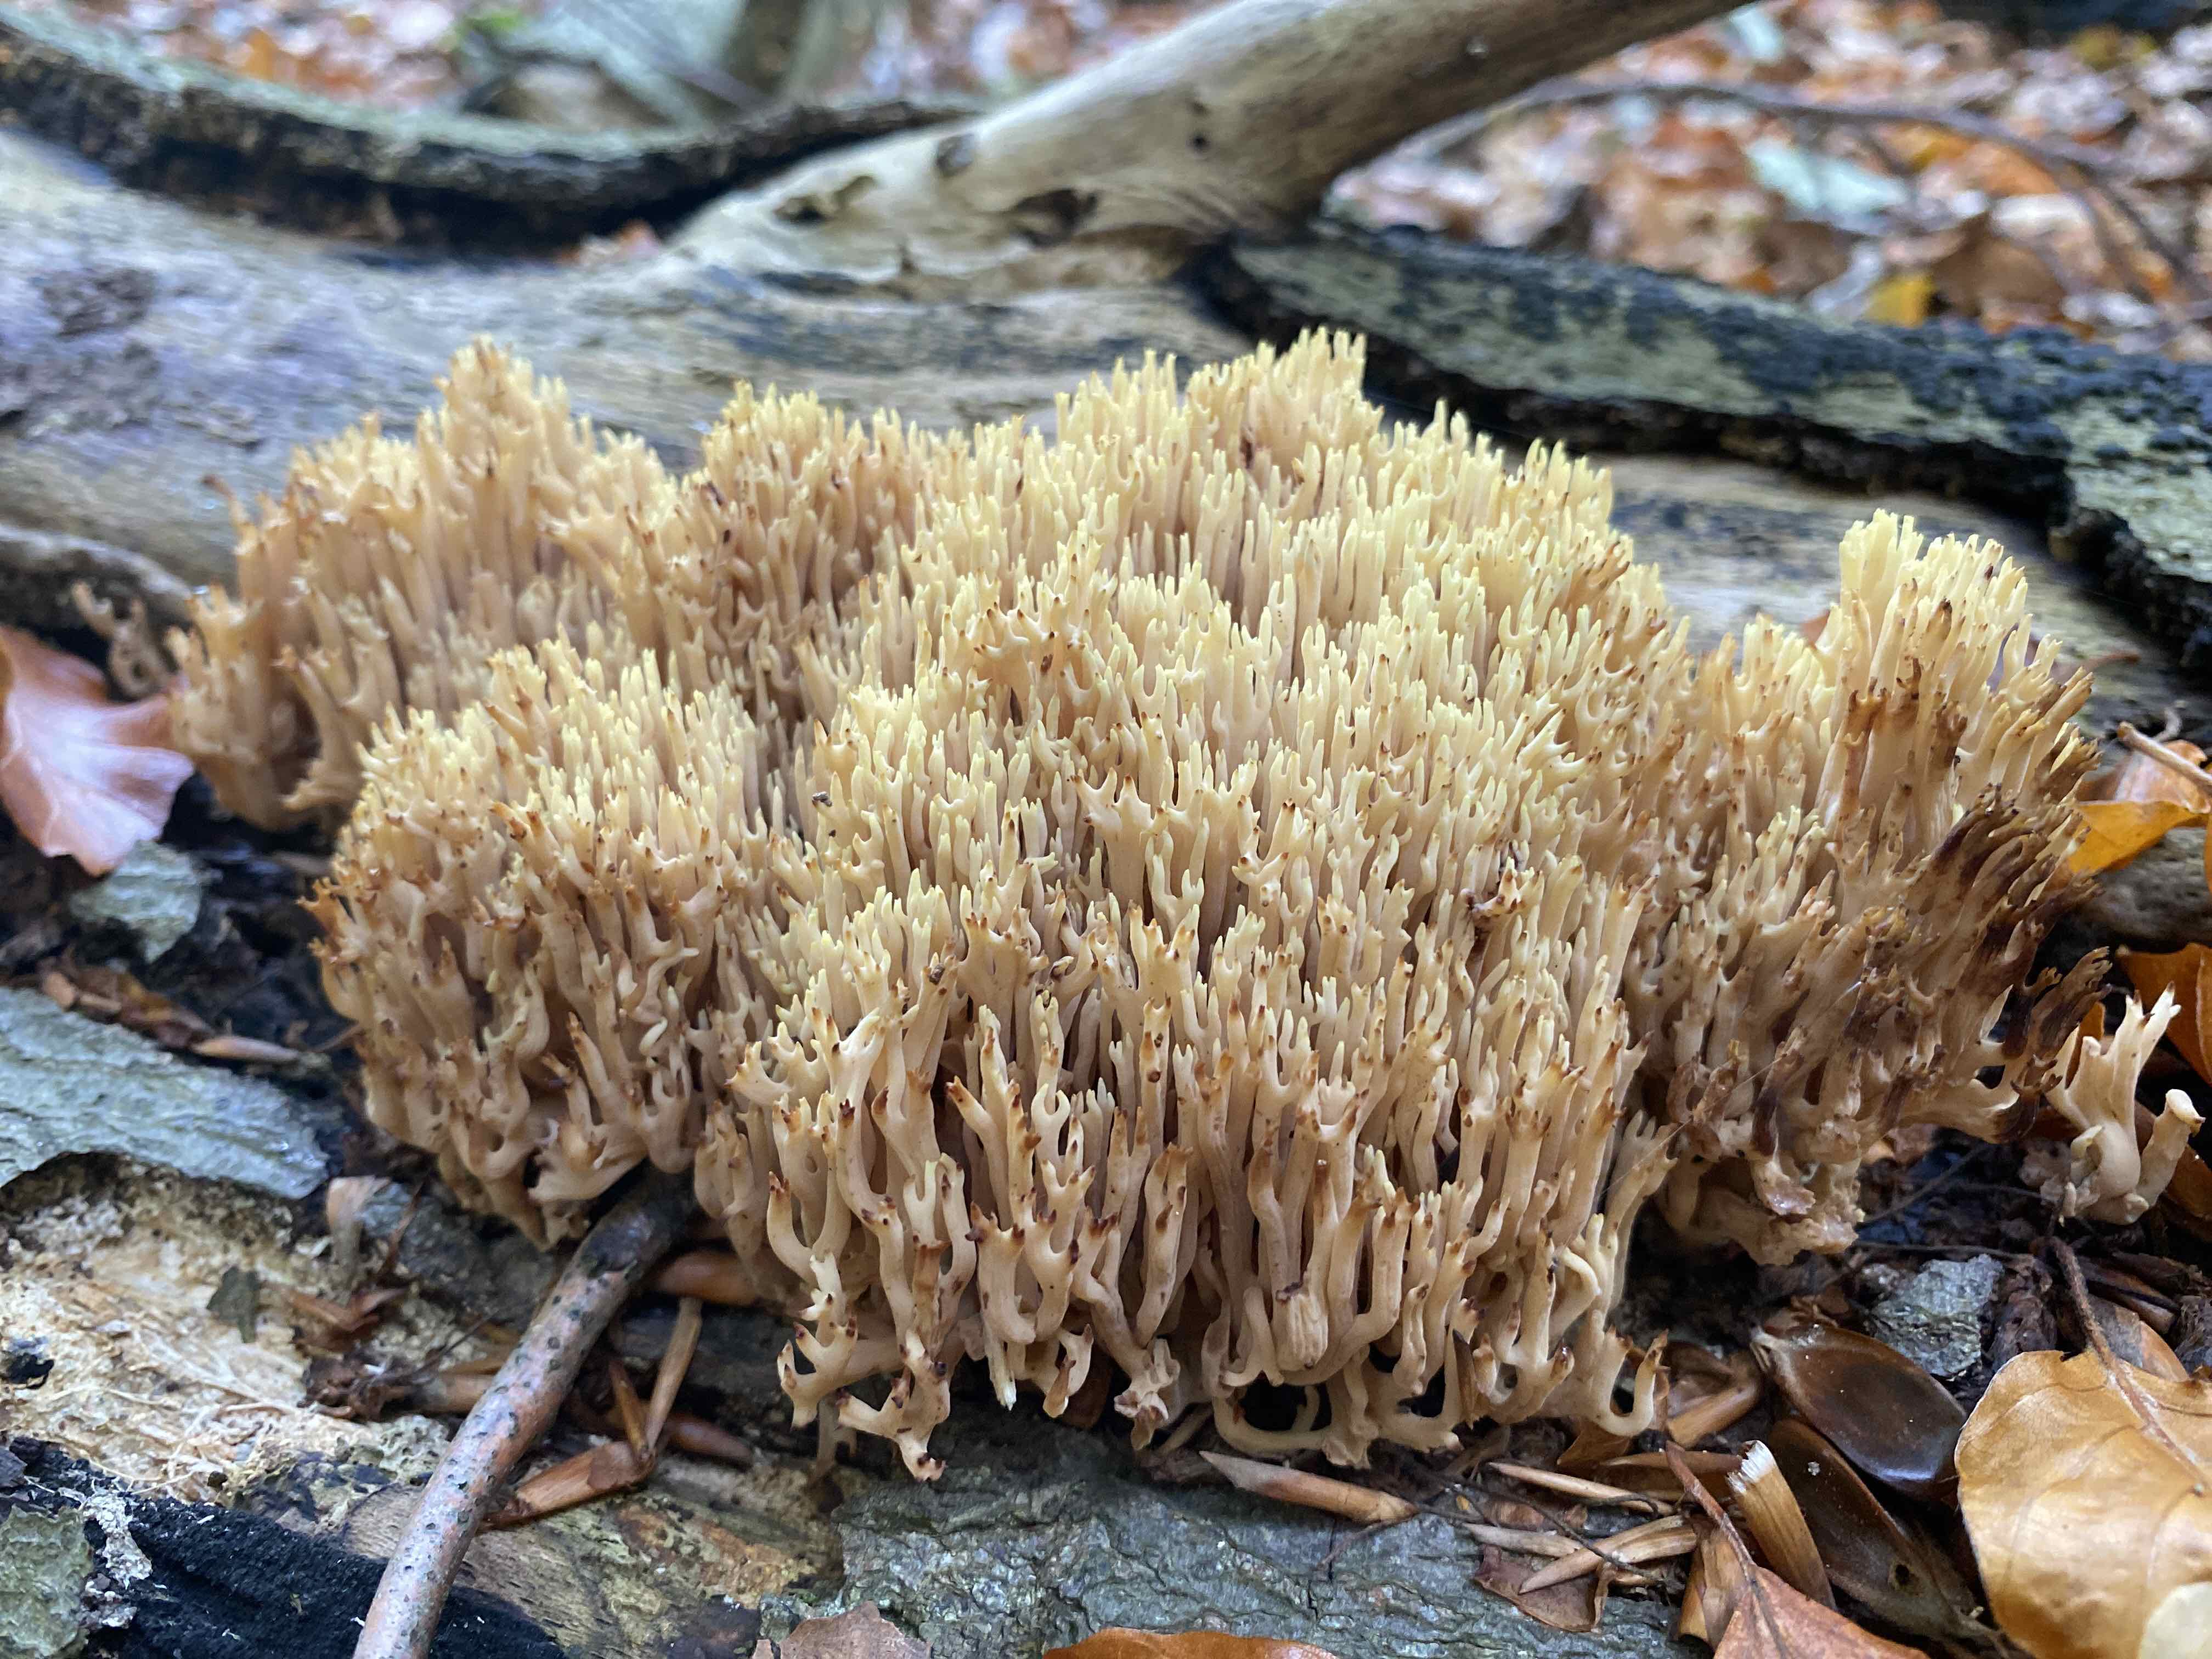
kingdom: Fungi
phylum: Basidiomycota
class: Agaricomycetes
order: Gomphales
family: Gomphaceae
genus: Ramaria
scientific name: Ramaria stricta
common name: rank koralsvamp
